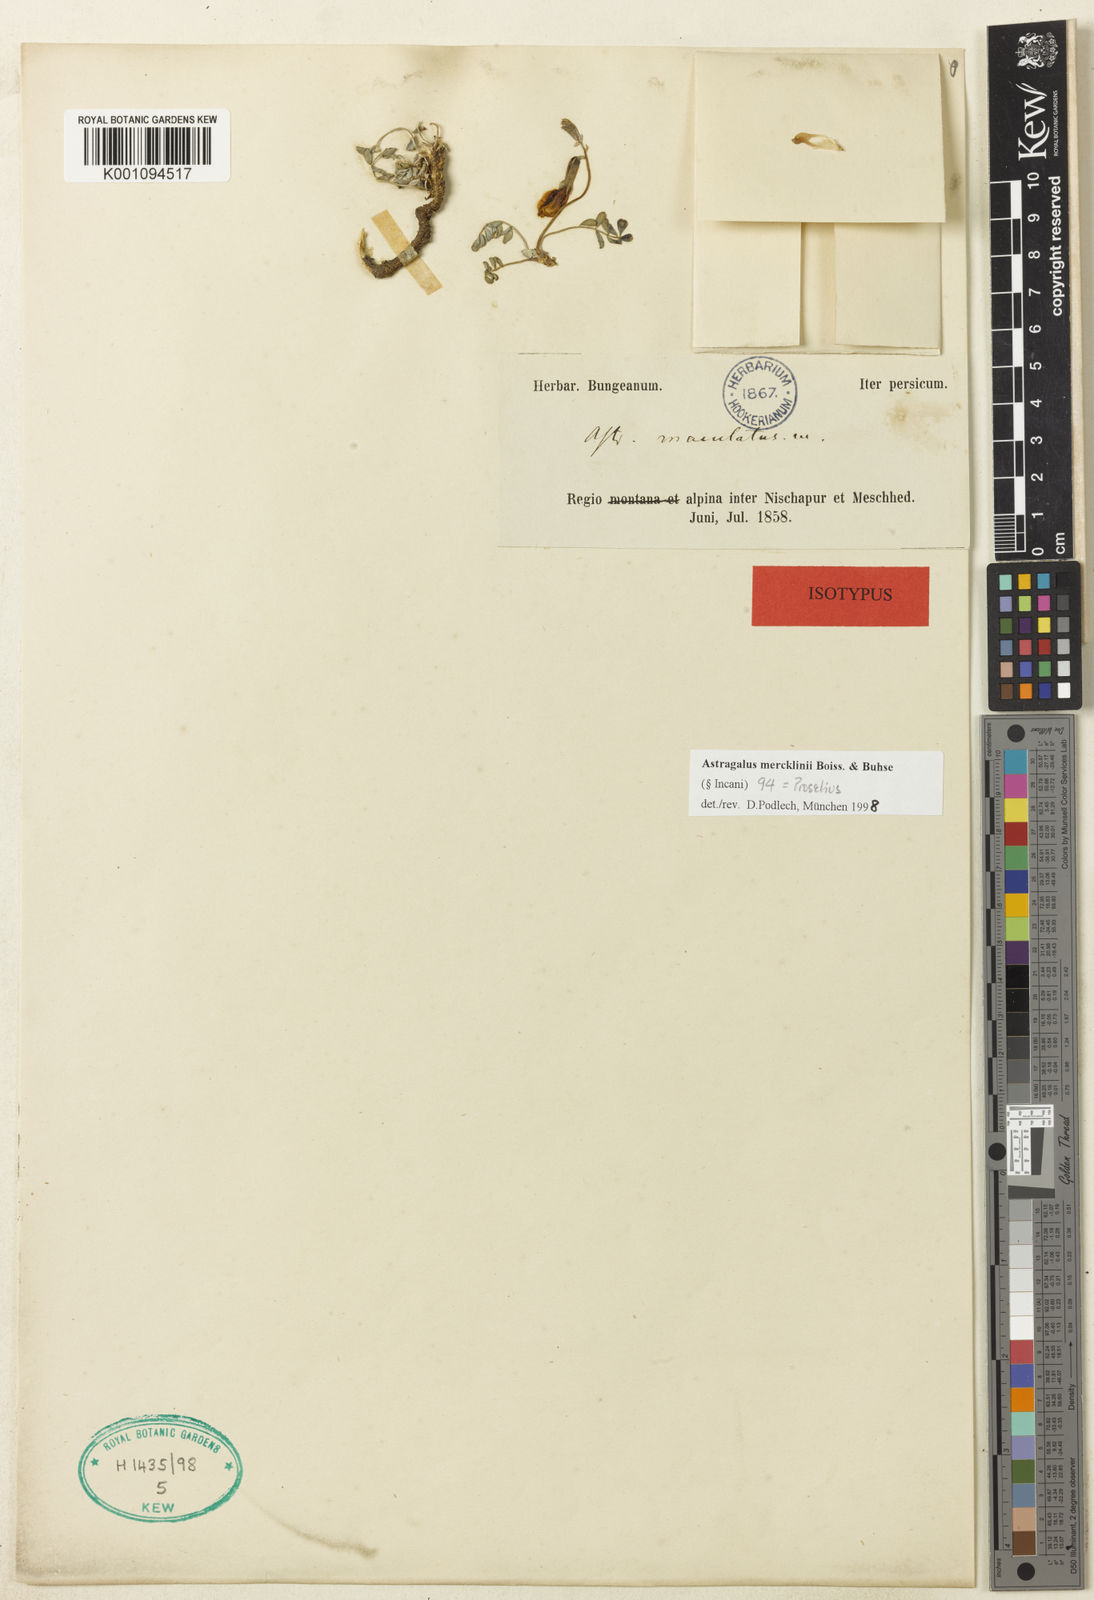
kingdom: Plantae
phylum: Tracheophyta
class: Magnoliopsida
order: Fabales
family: Fabaceae
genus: Astragalus
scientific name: Astragalus
